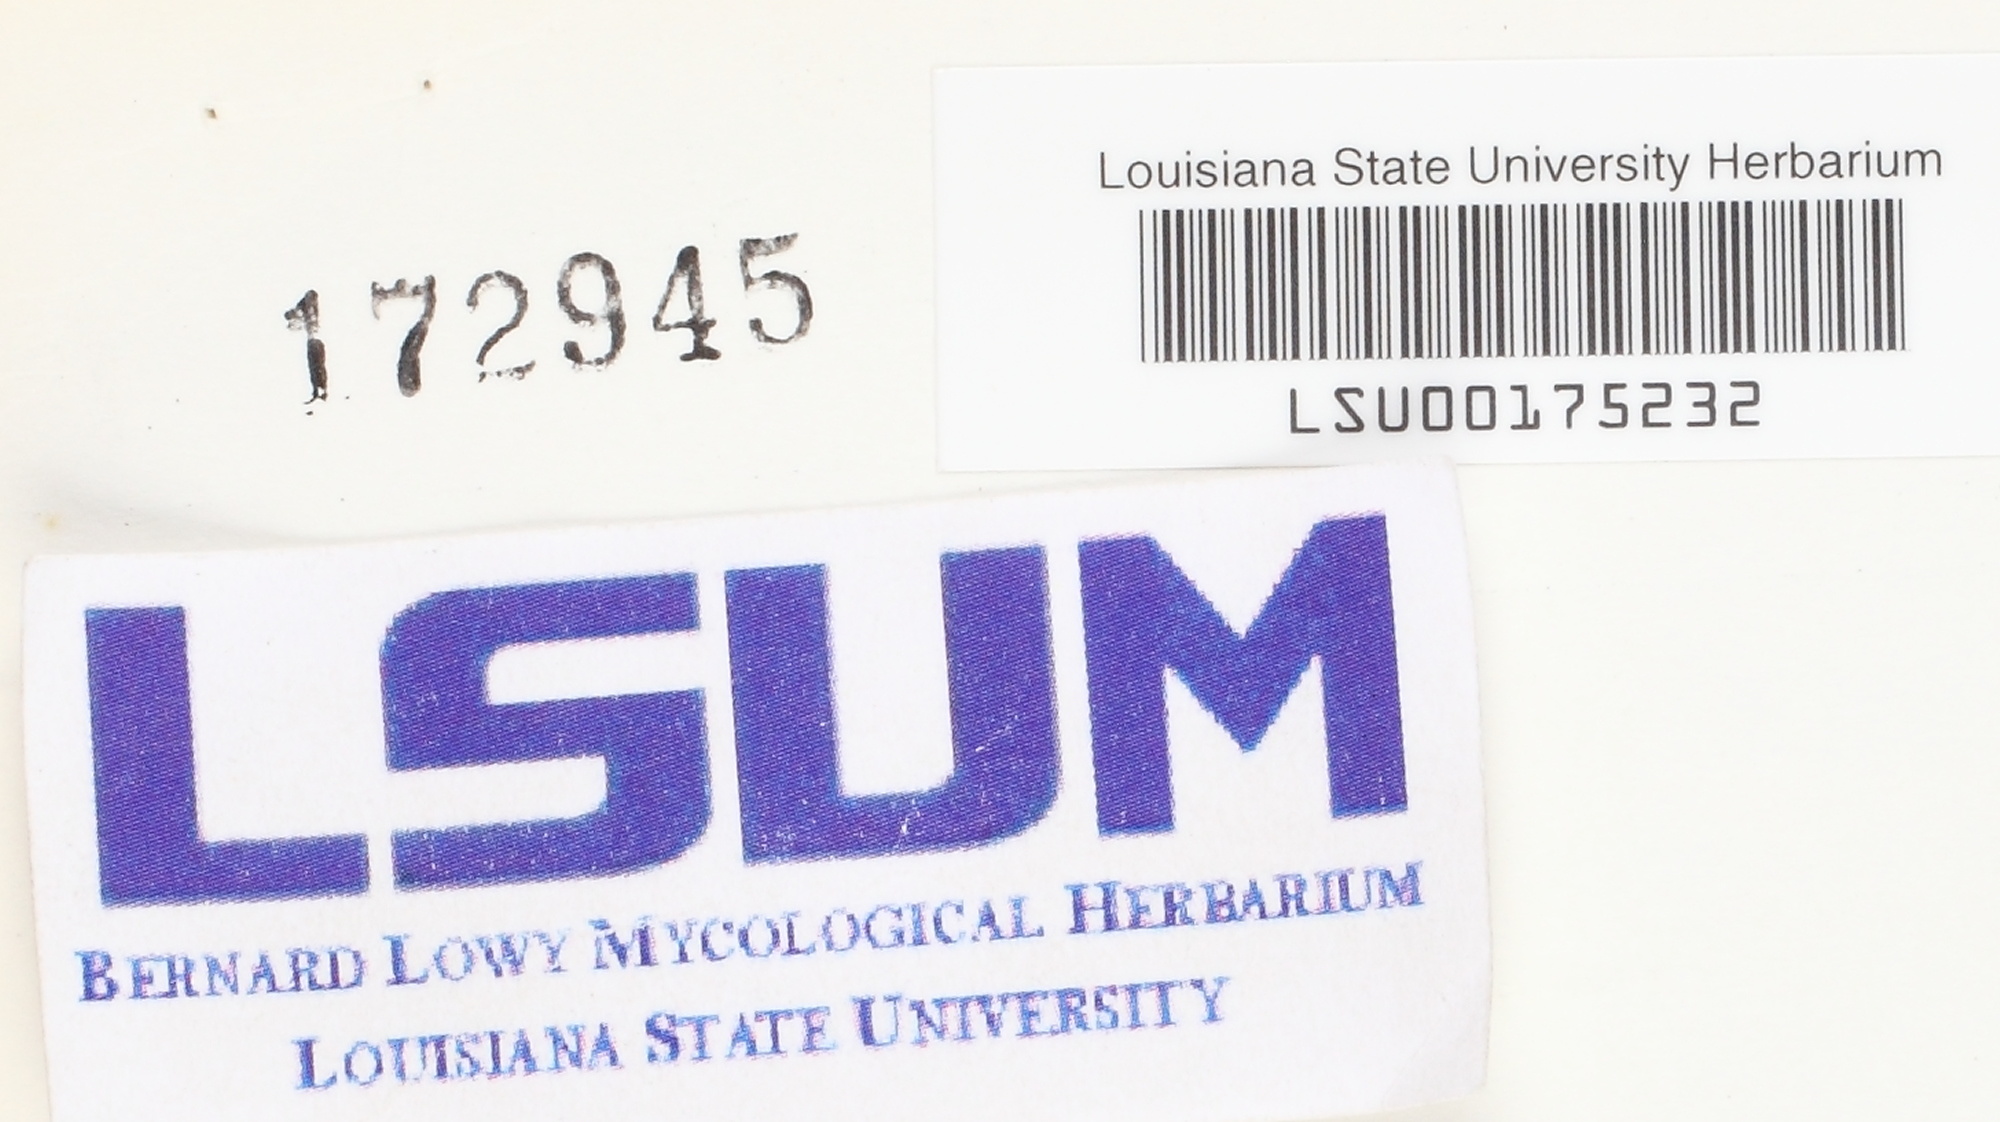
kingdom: Fungi
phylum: Basidiomycota
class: Agaricomycetes
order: Auriculariales
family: Auriculariaceae
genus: Exidiopsis
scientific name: Exidiopsis
